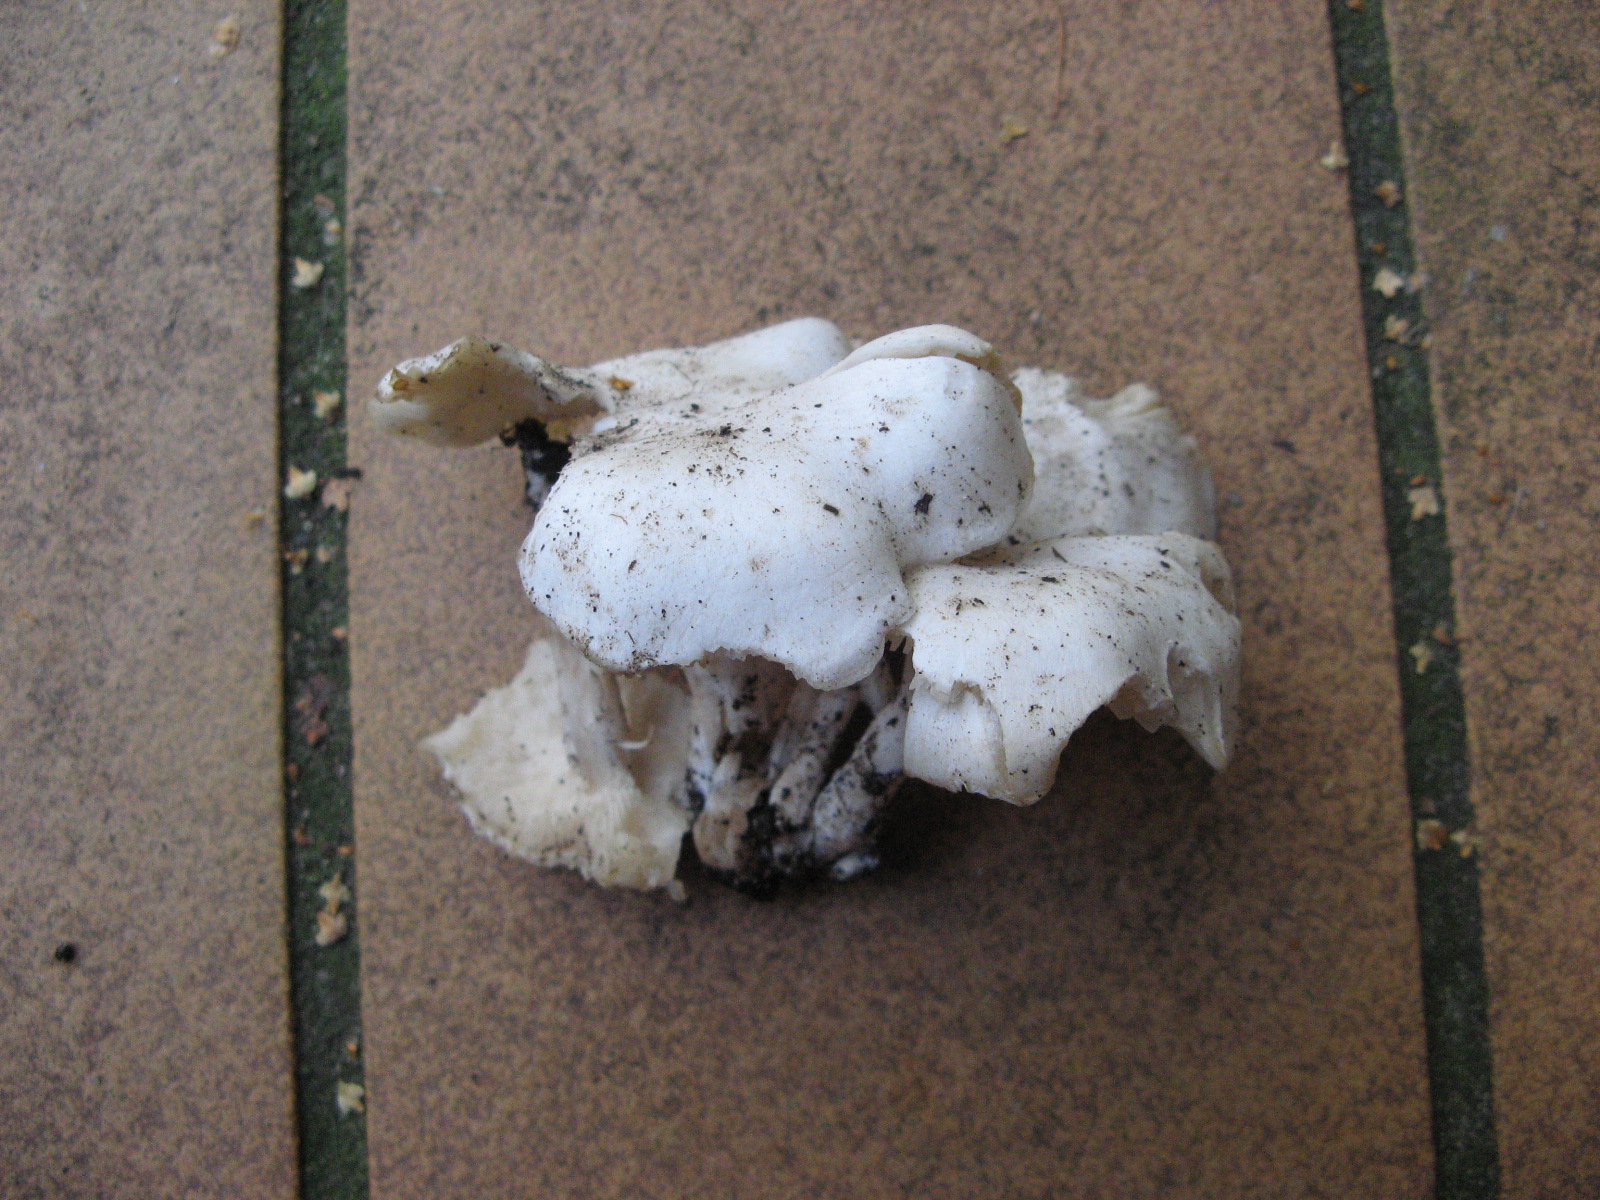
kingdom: Fungi
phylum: Basidiomycota
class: Agaricomycetes
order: Agaricales
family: Tricholomataceae
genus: Leucocybe
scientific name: Leucocybe connata
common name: knippe-tragthat
